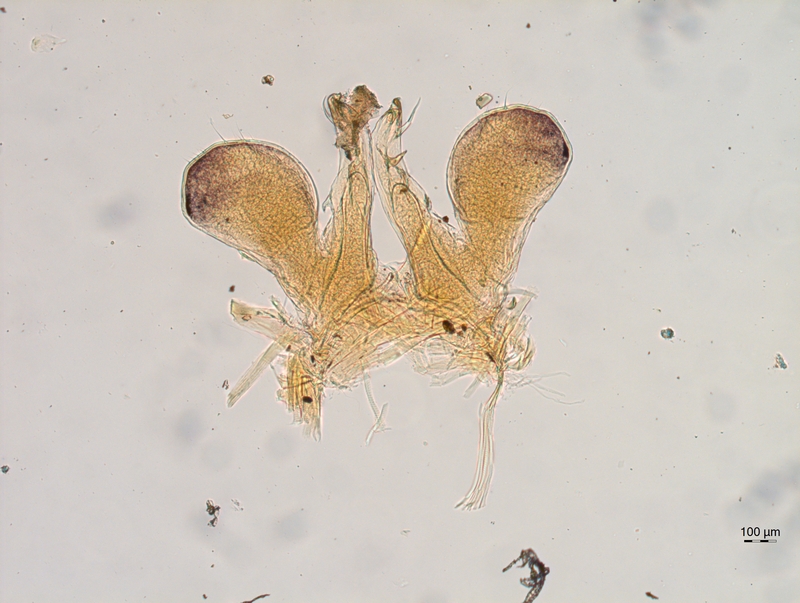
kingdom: Animalia
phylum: Arthropoda
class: Diplopoda
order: Chordeumatida
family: Chordeumatidae
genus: Chordeuma
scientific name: Chordeuma sylvestre
